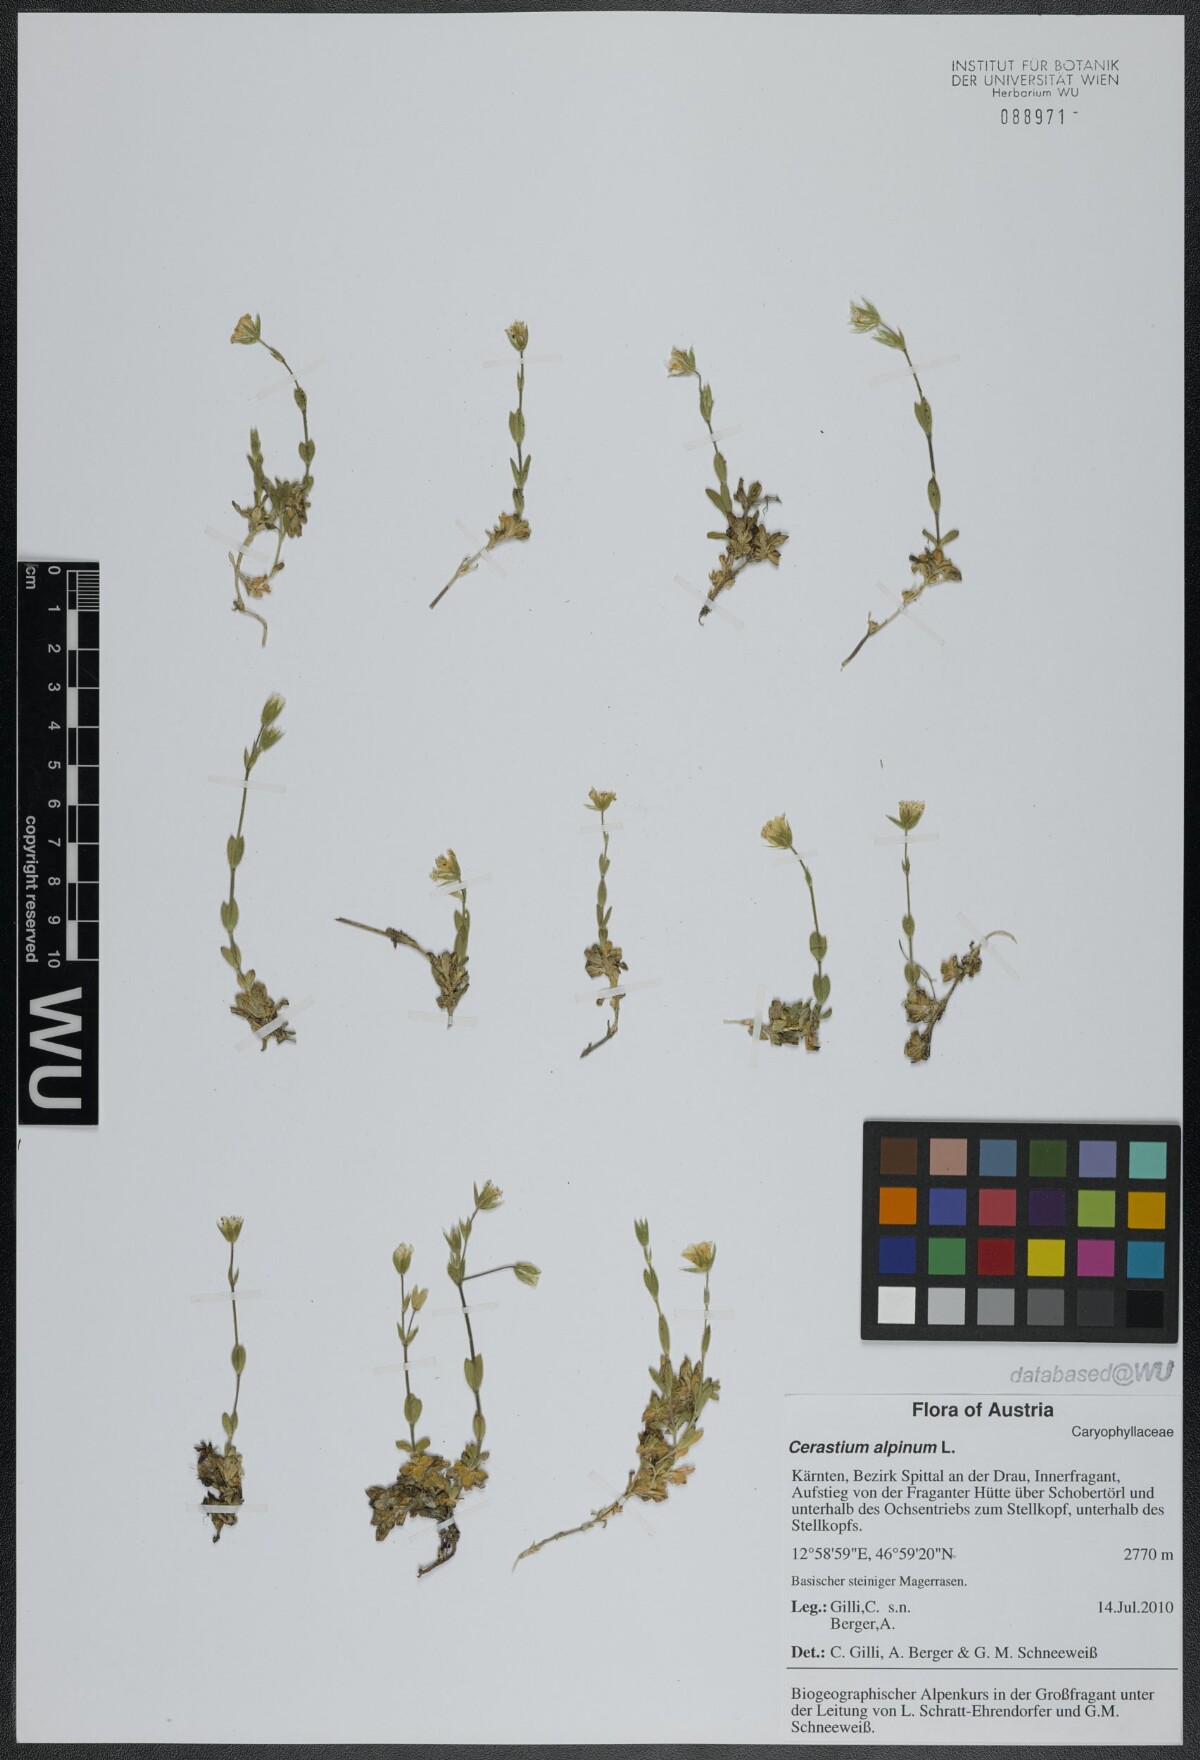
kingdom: Plantae
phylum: Tracheophyta
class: Magnoliopsida
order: Caryophyllales
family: Caryophyllaceae
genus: Cerastium
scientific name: Cerastium alpinum
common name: Alpine mouse-ear
